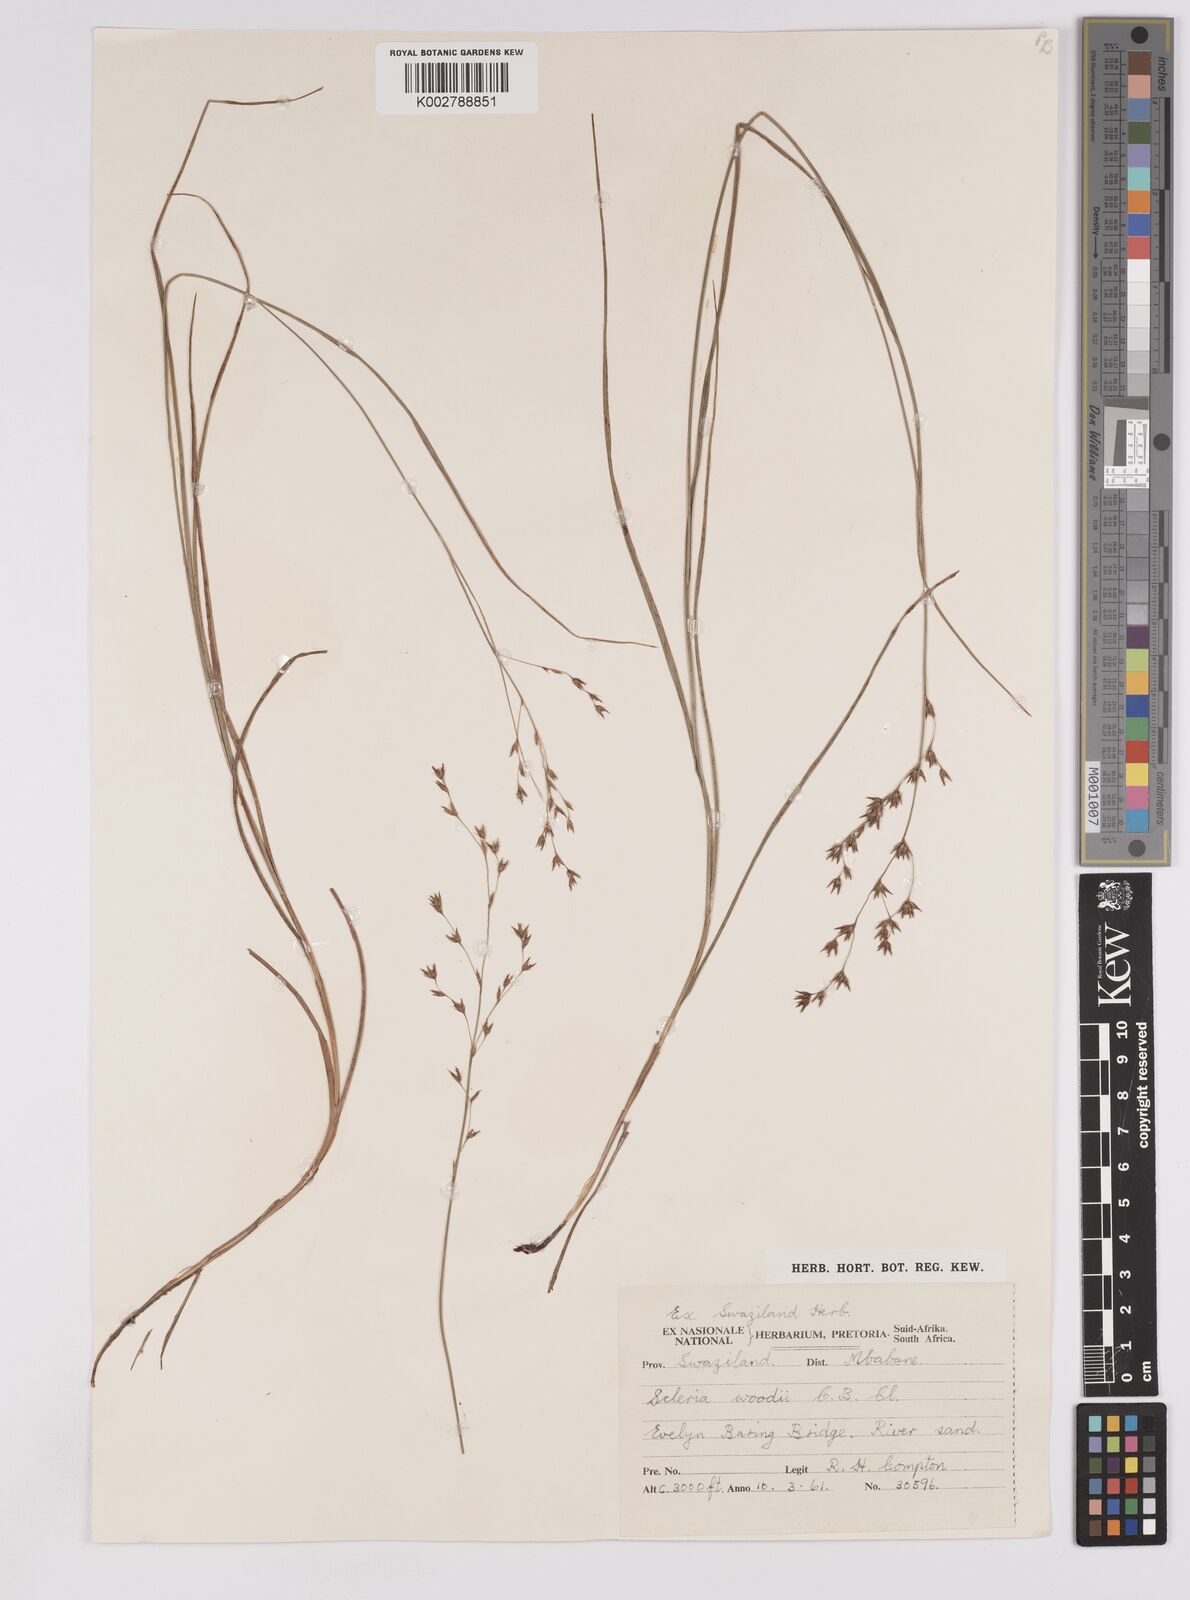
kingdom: Plantae
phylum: Tracheophyta
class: Liliopsida
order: Poales
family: Cyperaceae
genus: Scleria
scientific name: Scleria woodii
